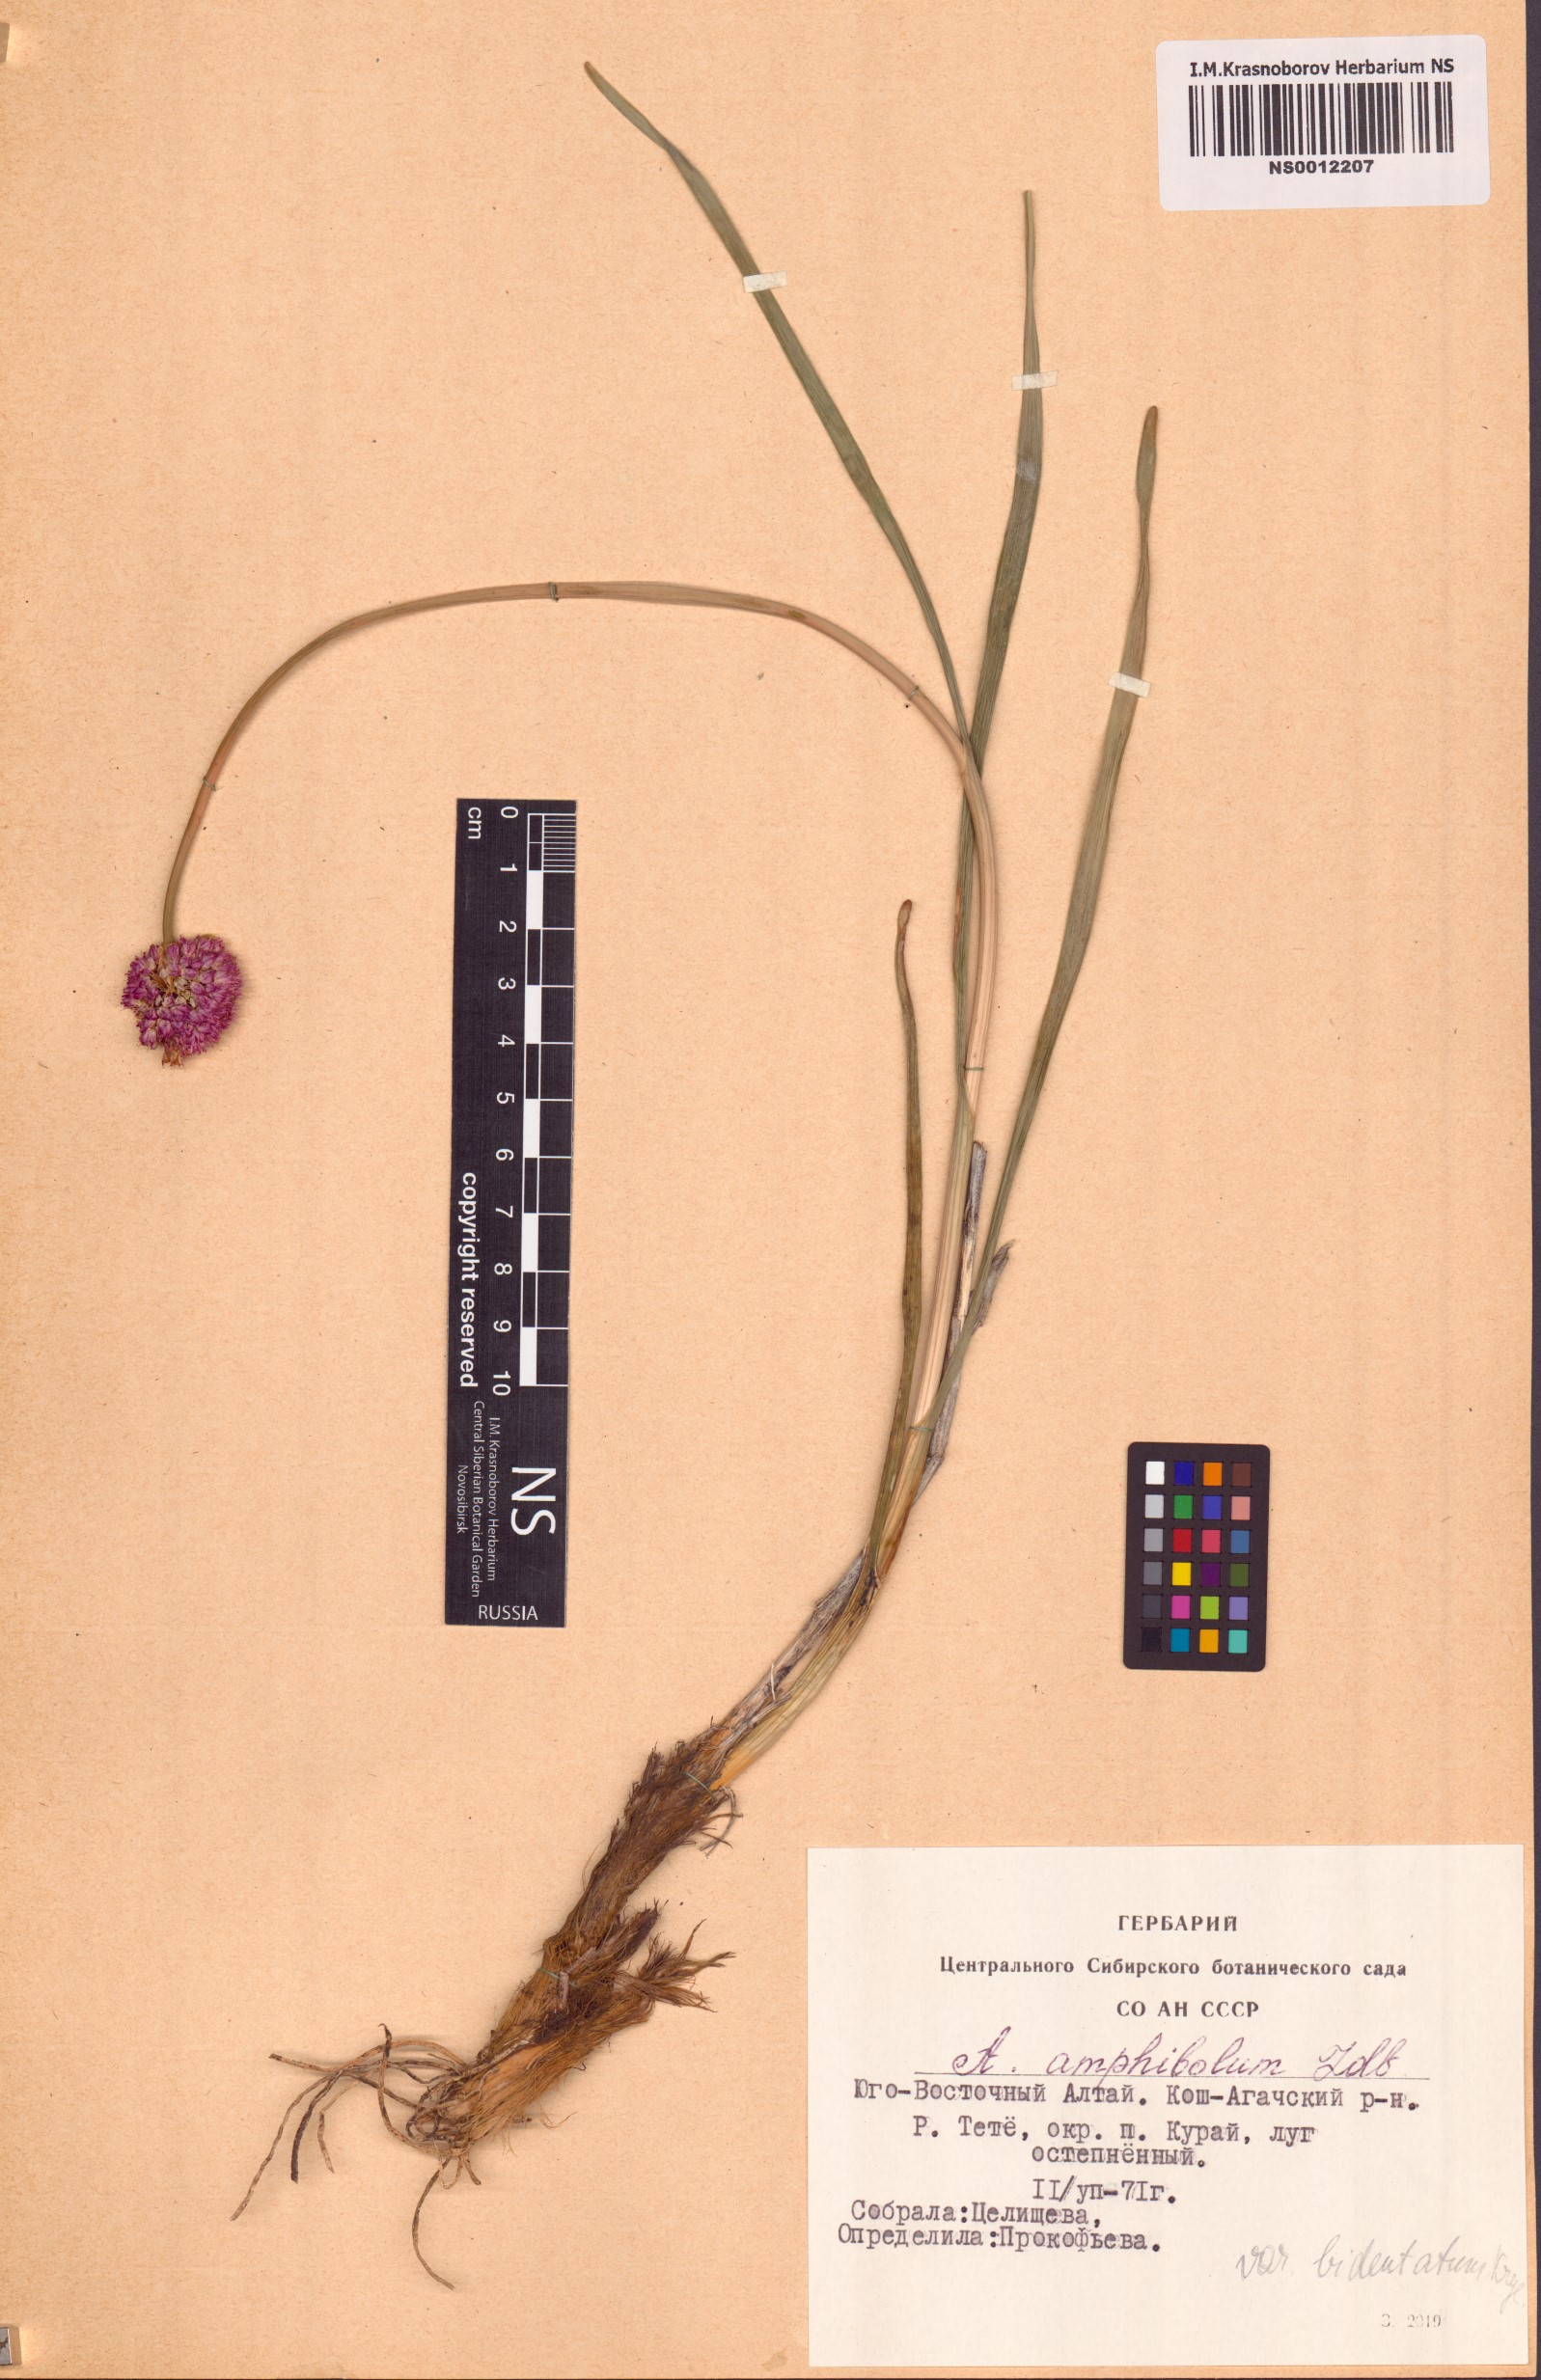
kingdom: Plantae
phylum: Tracheophyta
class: Liliopsida
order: Asparagales
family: Amaryllidaceae
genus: Allium
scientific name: Allium amphibolum
